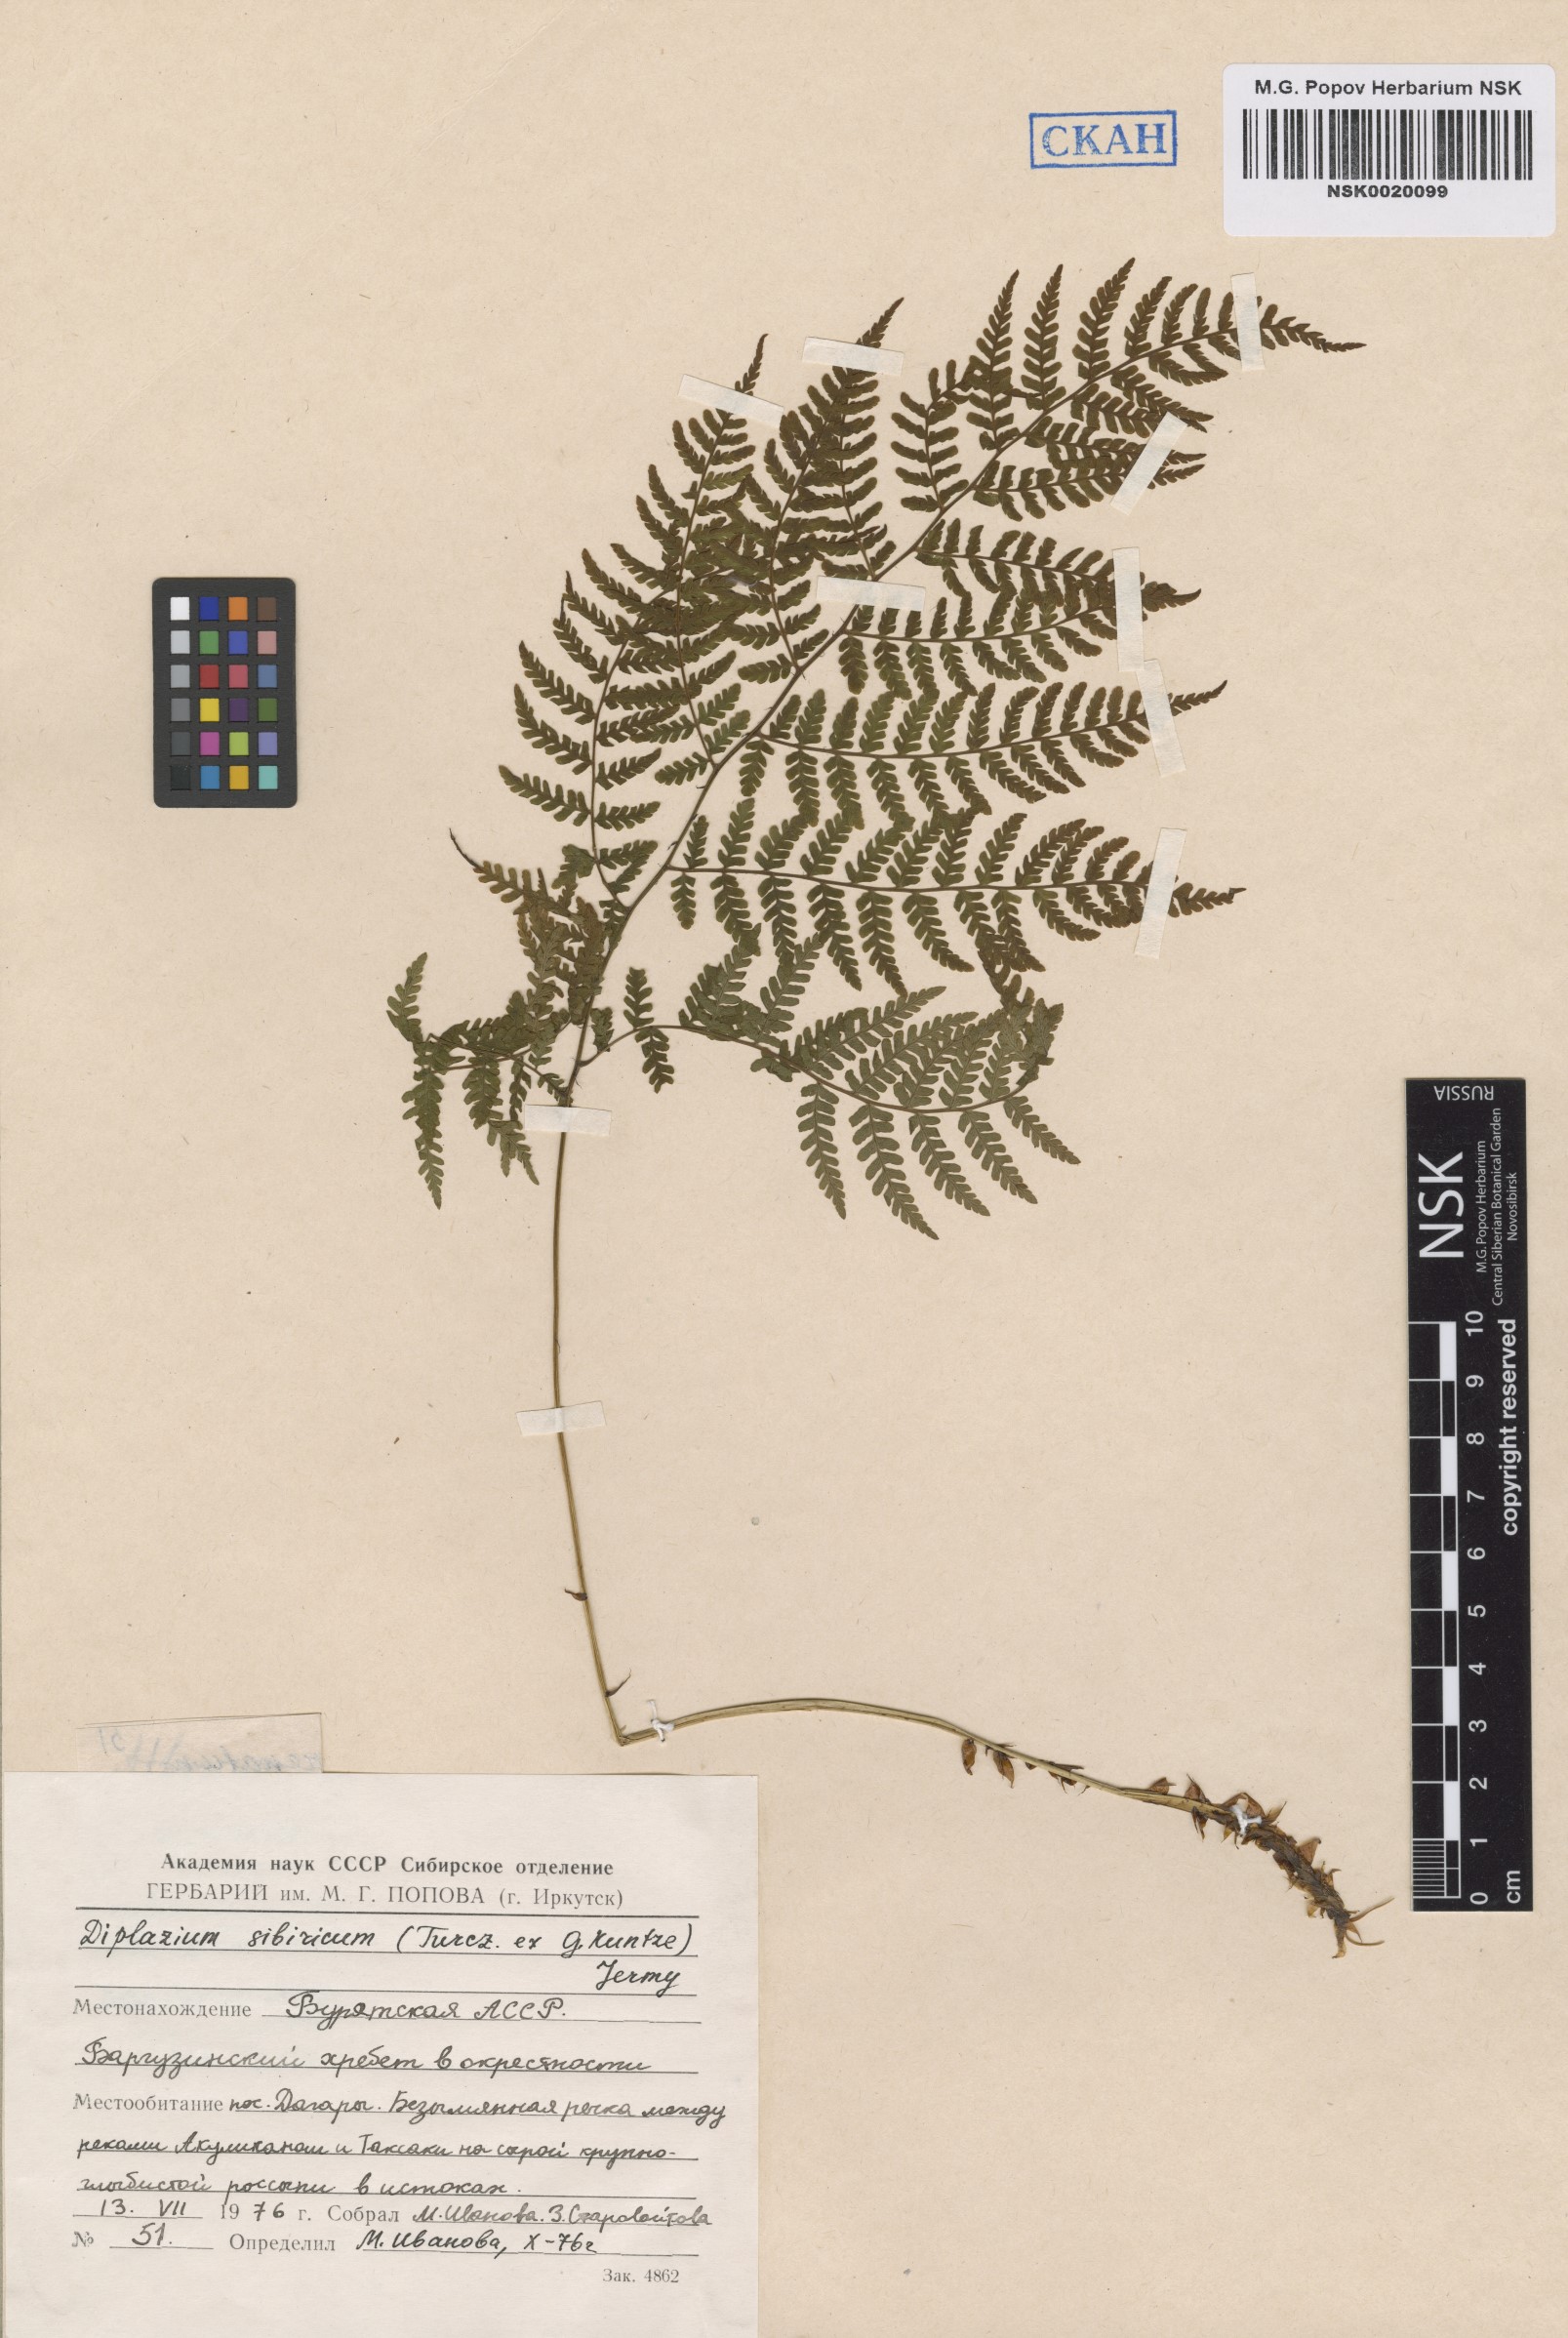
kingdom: Plantae
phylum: Tracheophyta
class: Polypodiopsida
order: Polypodiales
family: Athyriaceae
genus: Diplazium
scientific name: Diplazium sibiricum
